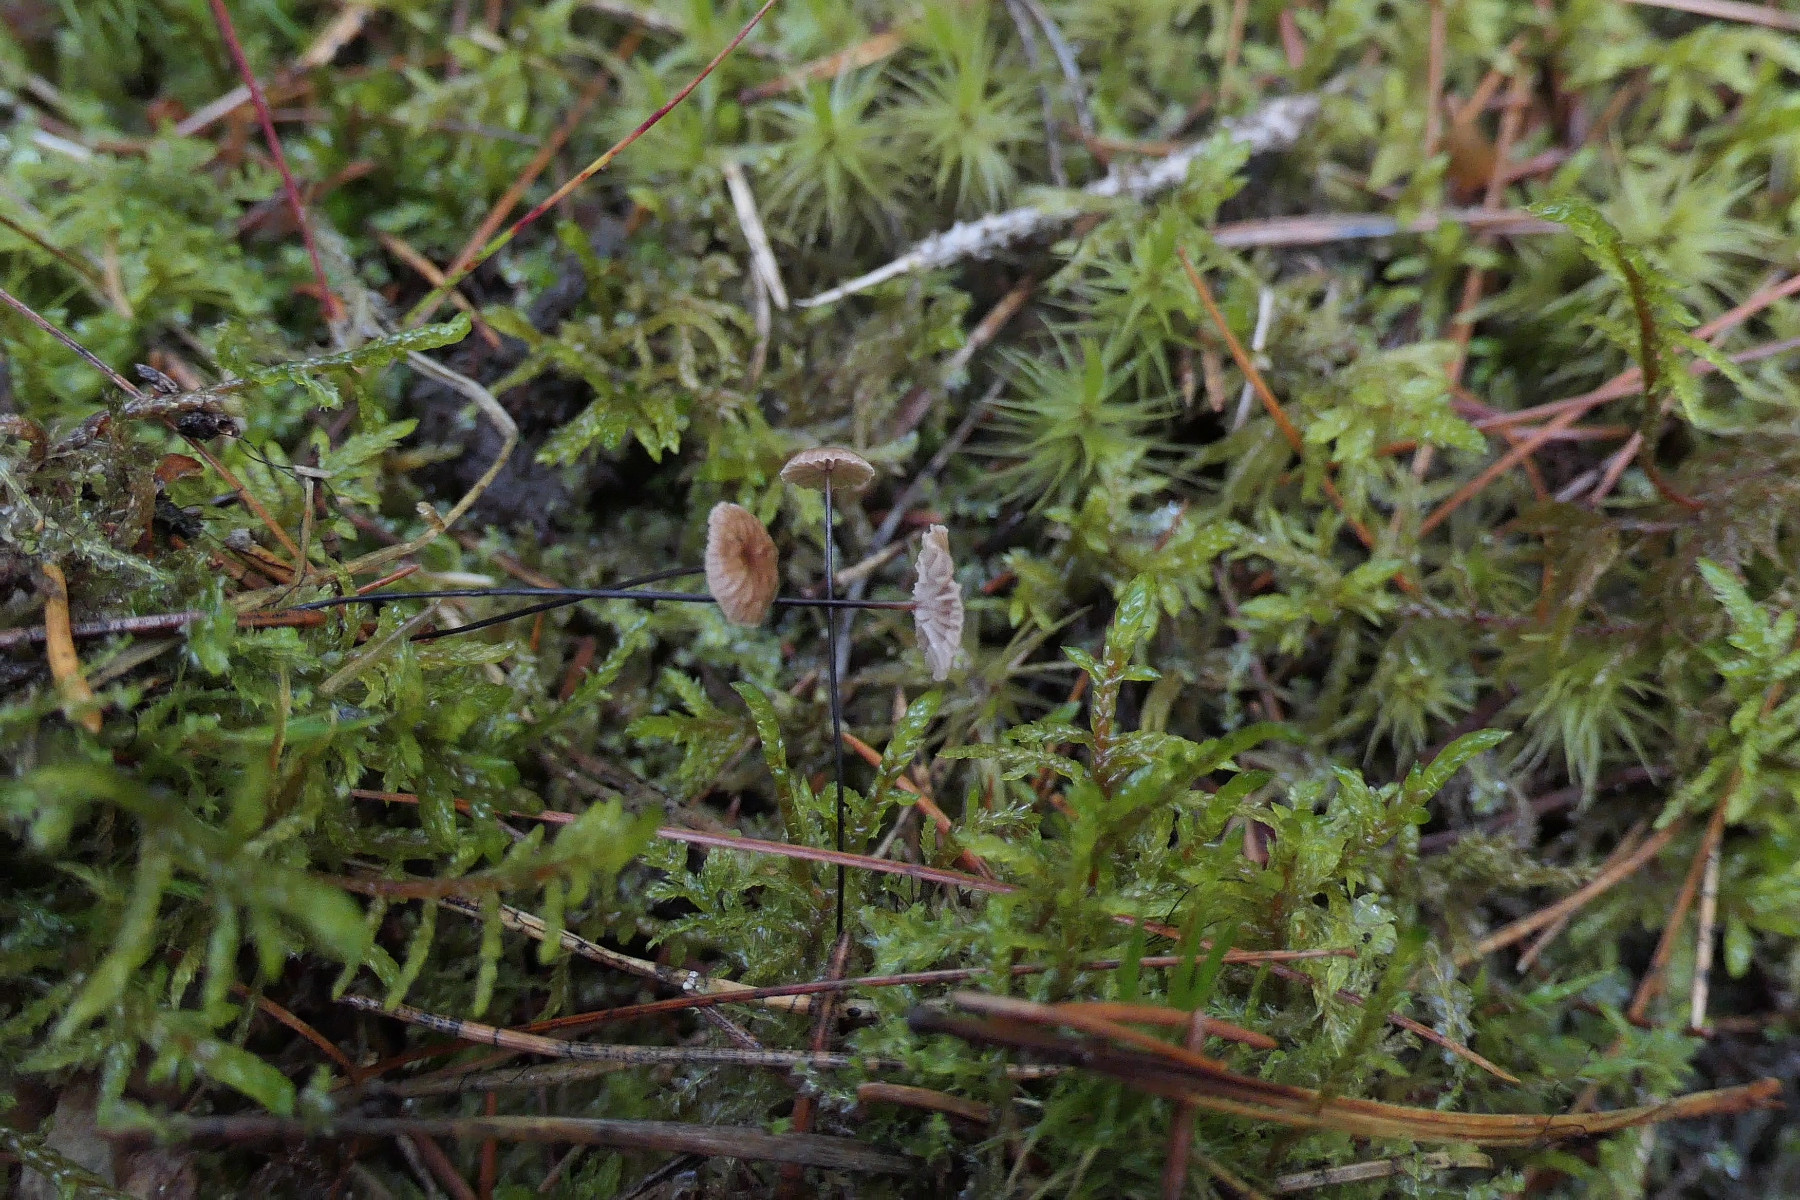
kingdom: Fungi
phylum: Basidiomycota
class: Agaricomycetes
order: Agaricales
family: Omphalotaceae
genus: Gymnopus
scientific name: Gymnopus androsaceus
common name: trådstokket fladhat
